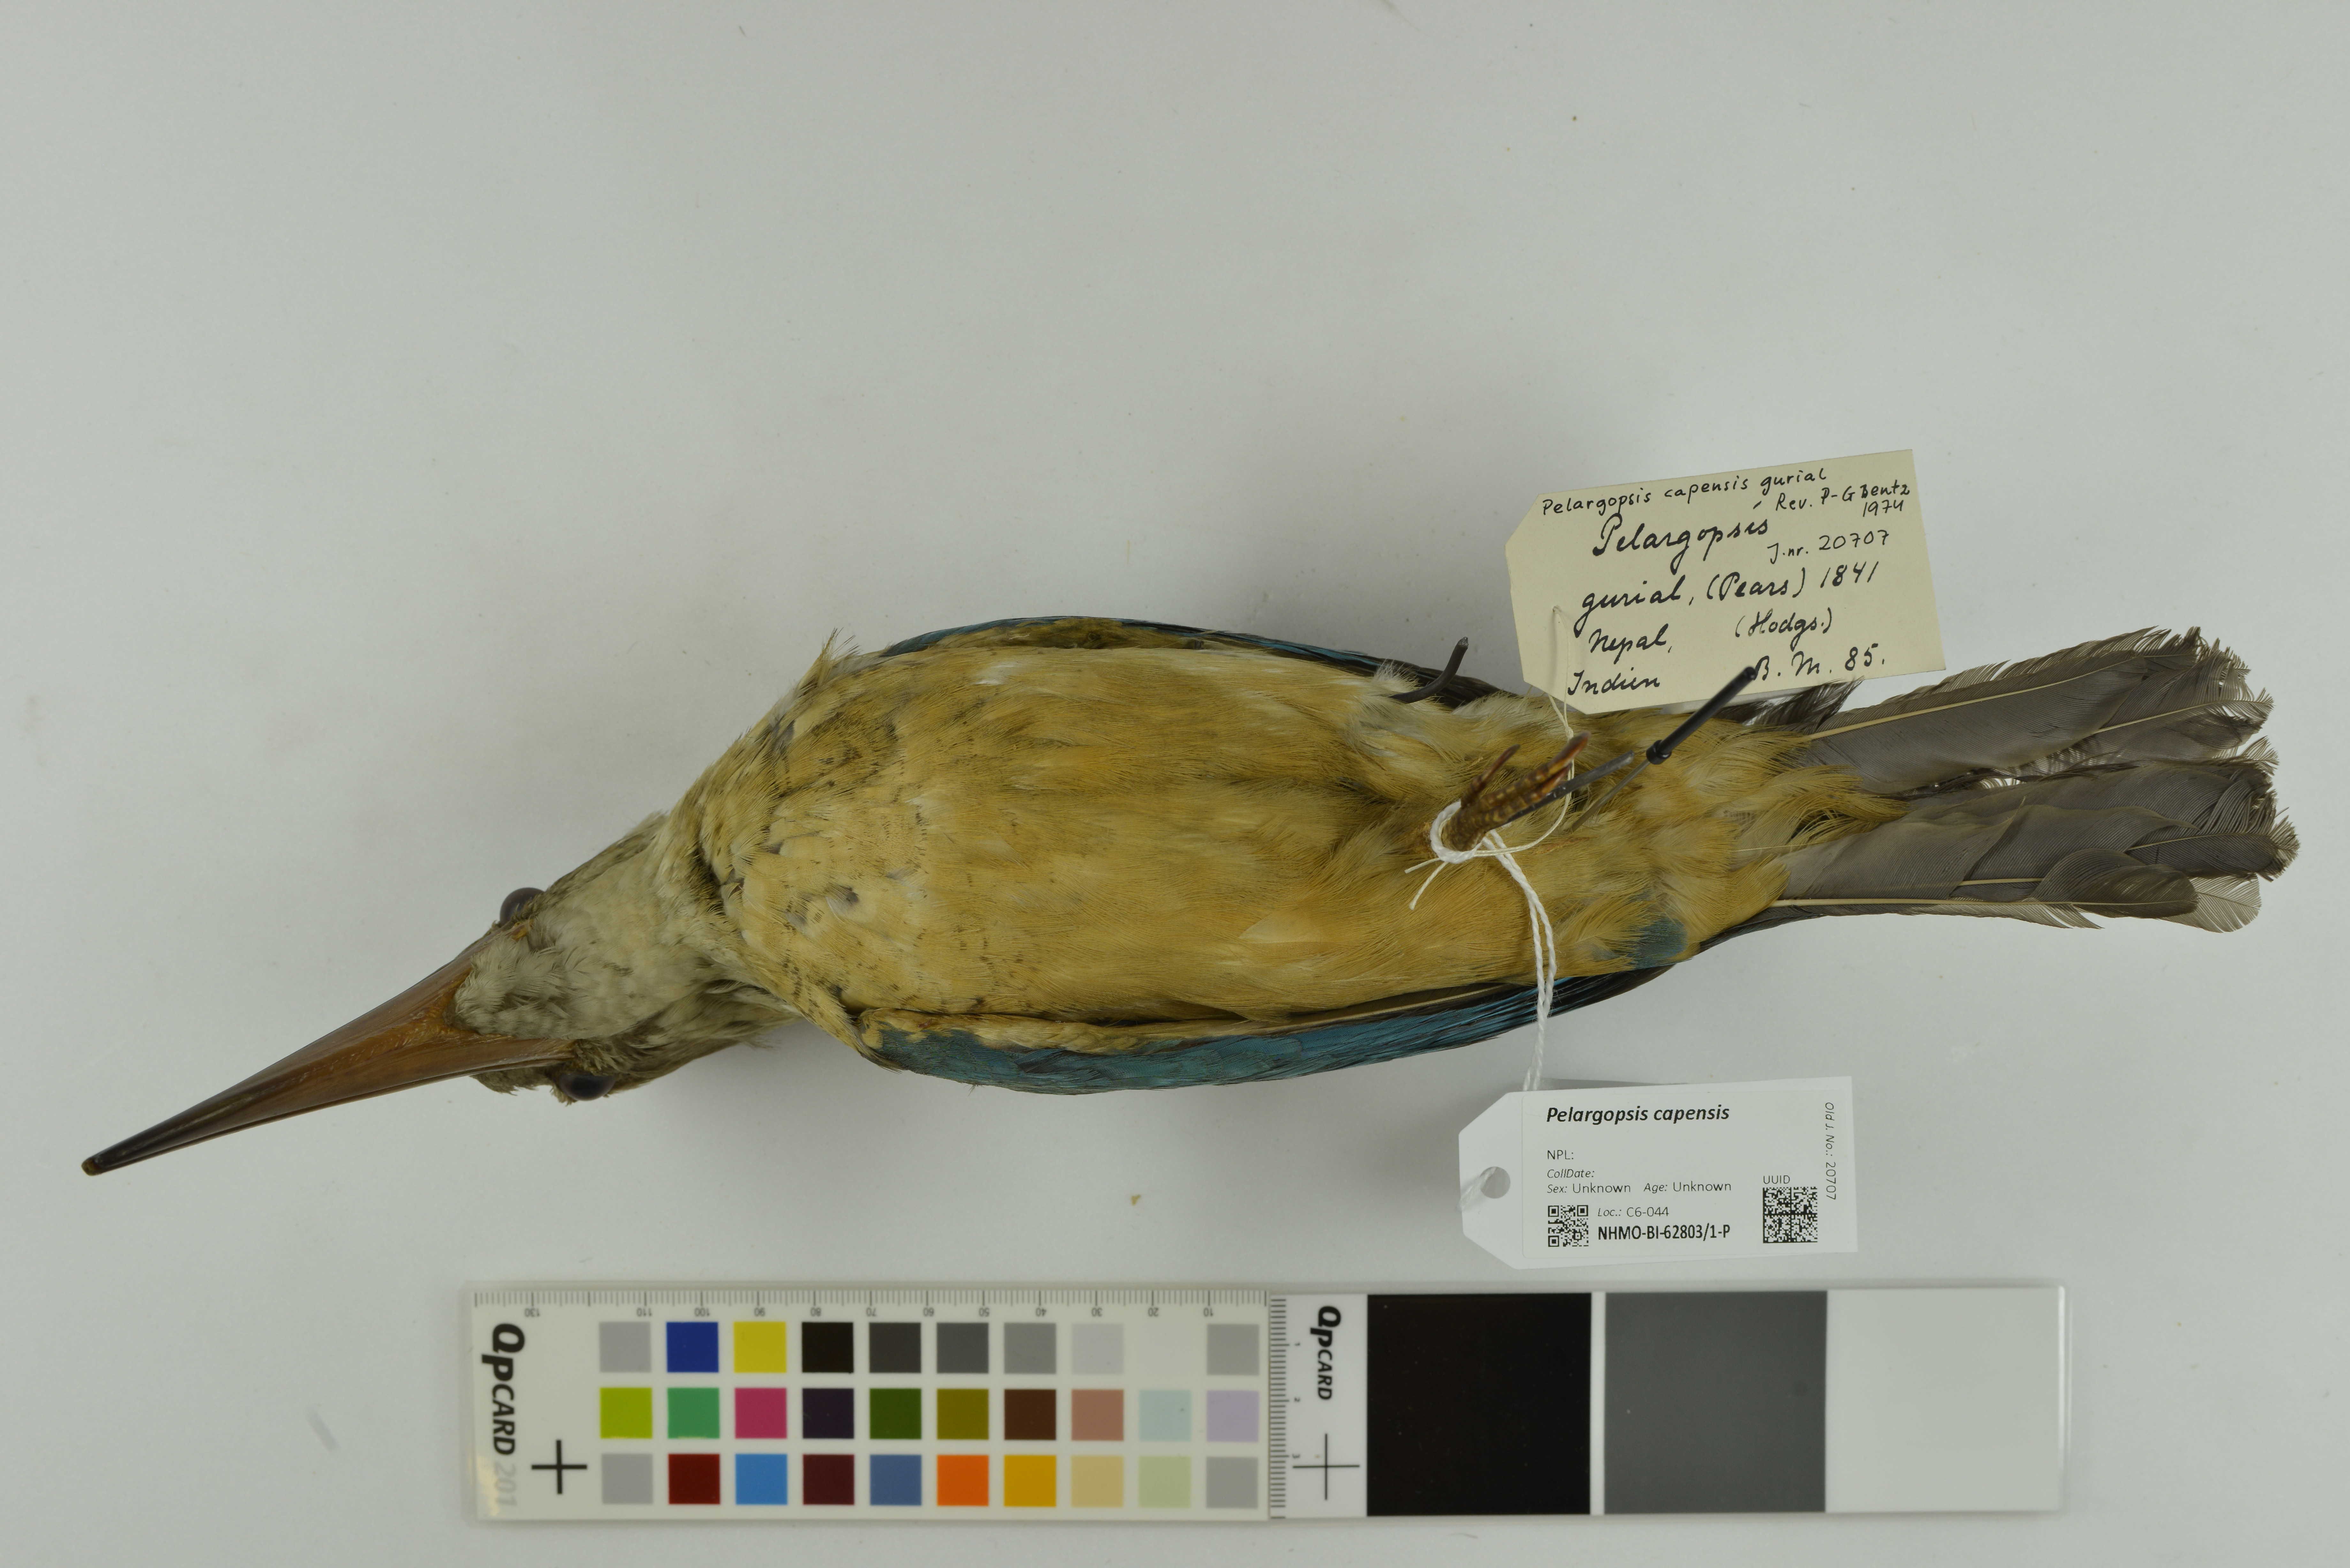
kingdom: Animalia
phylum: Chordata
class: Aves
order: Coraciiformes
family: Alcedinidae
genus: Pelargopsis
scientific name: Pelargopsis capensis
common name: Stork-billed kingfisher
